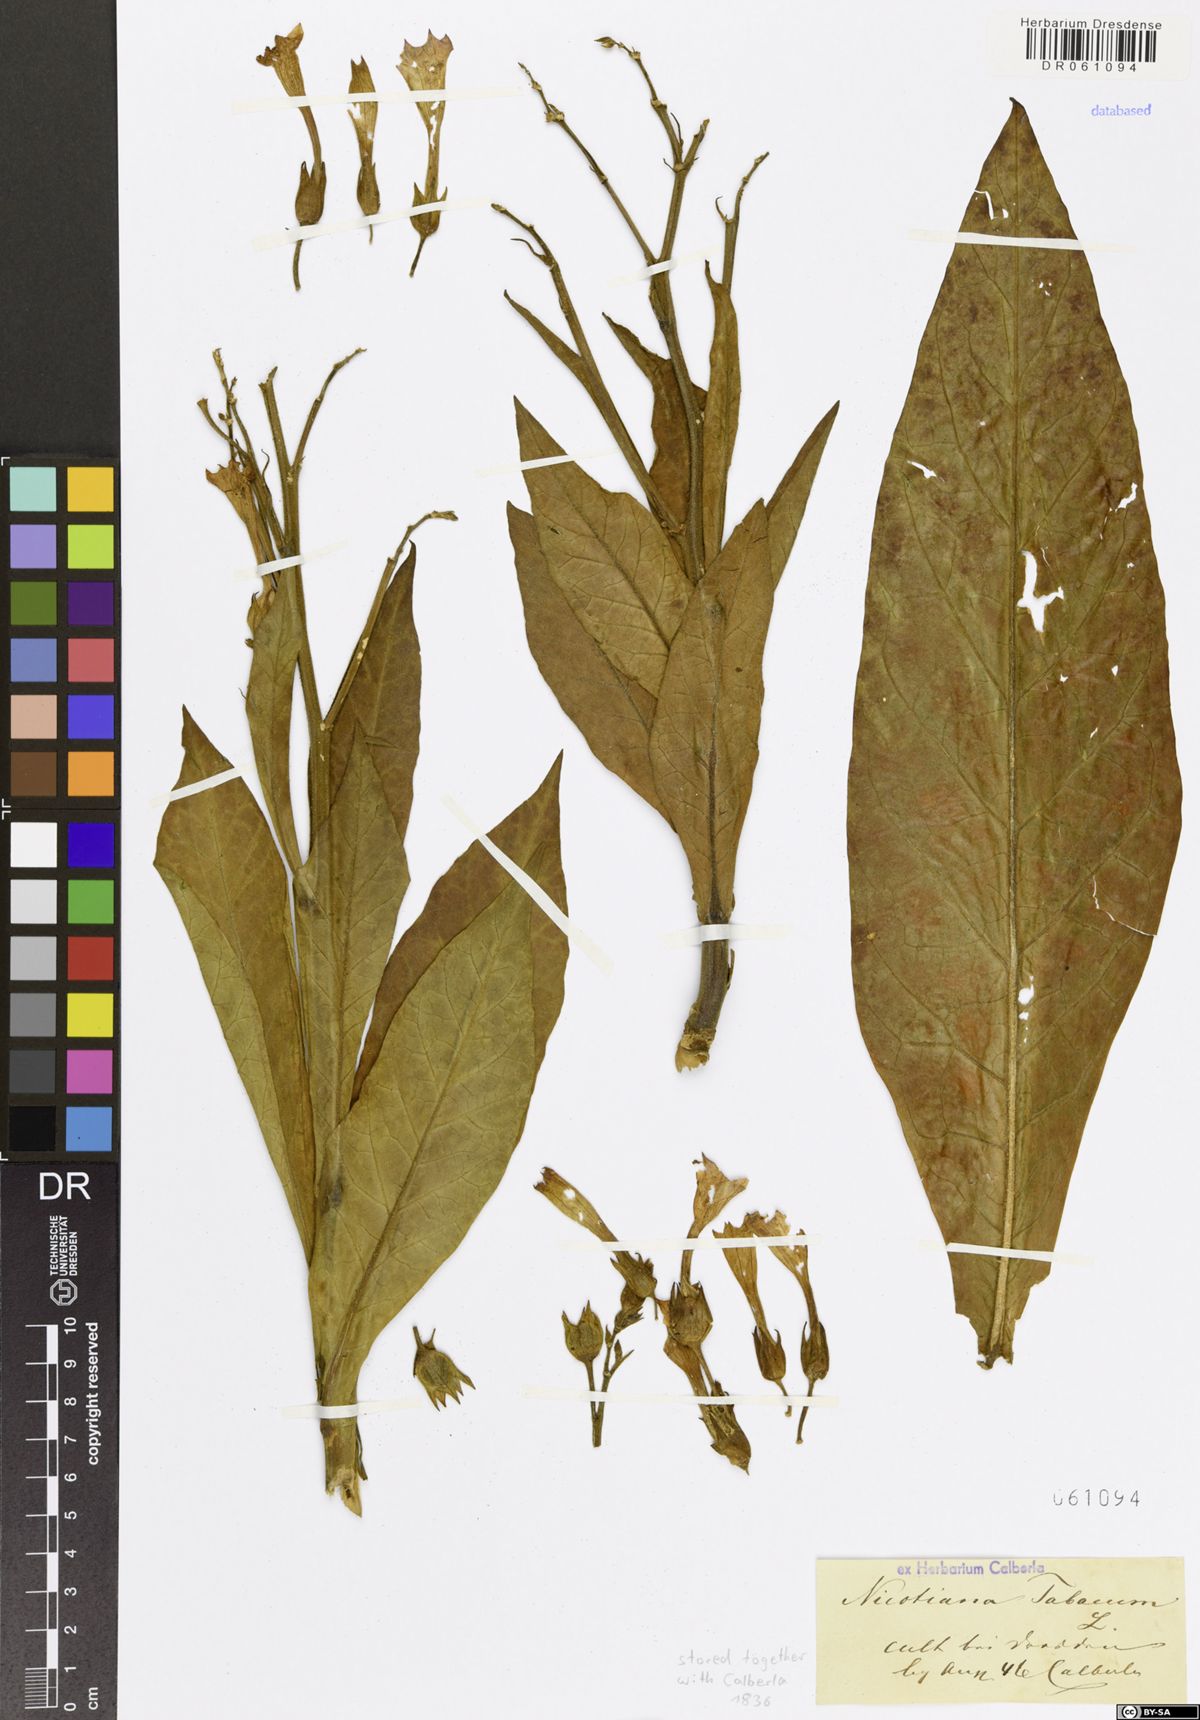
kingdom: Plantae
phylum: Tracheophyta
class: Magnoliopsida
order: Solanales
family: Solanaceae
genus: Nicotiana
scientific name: Nicotiana tabacum
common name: Tobacco
